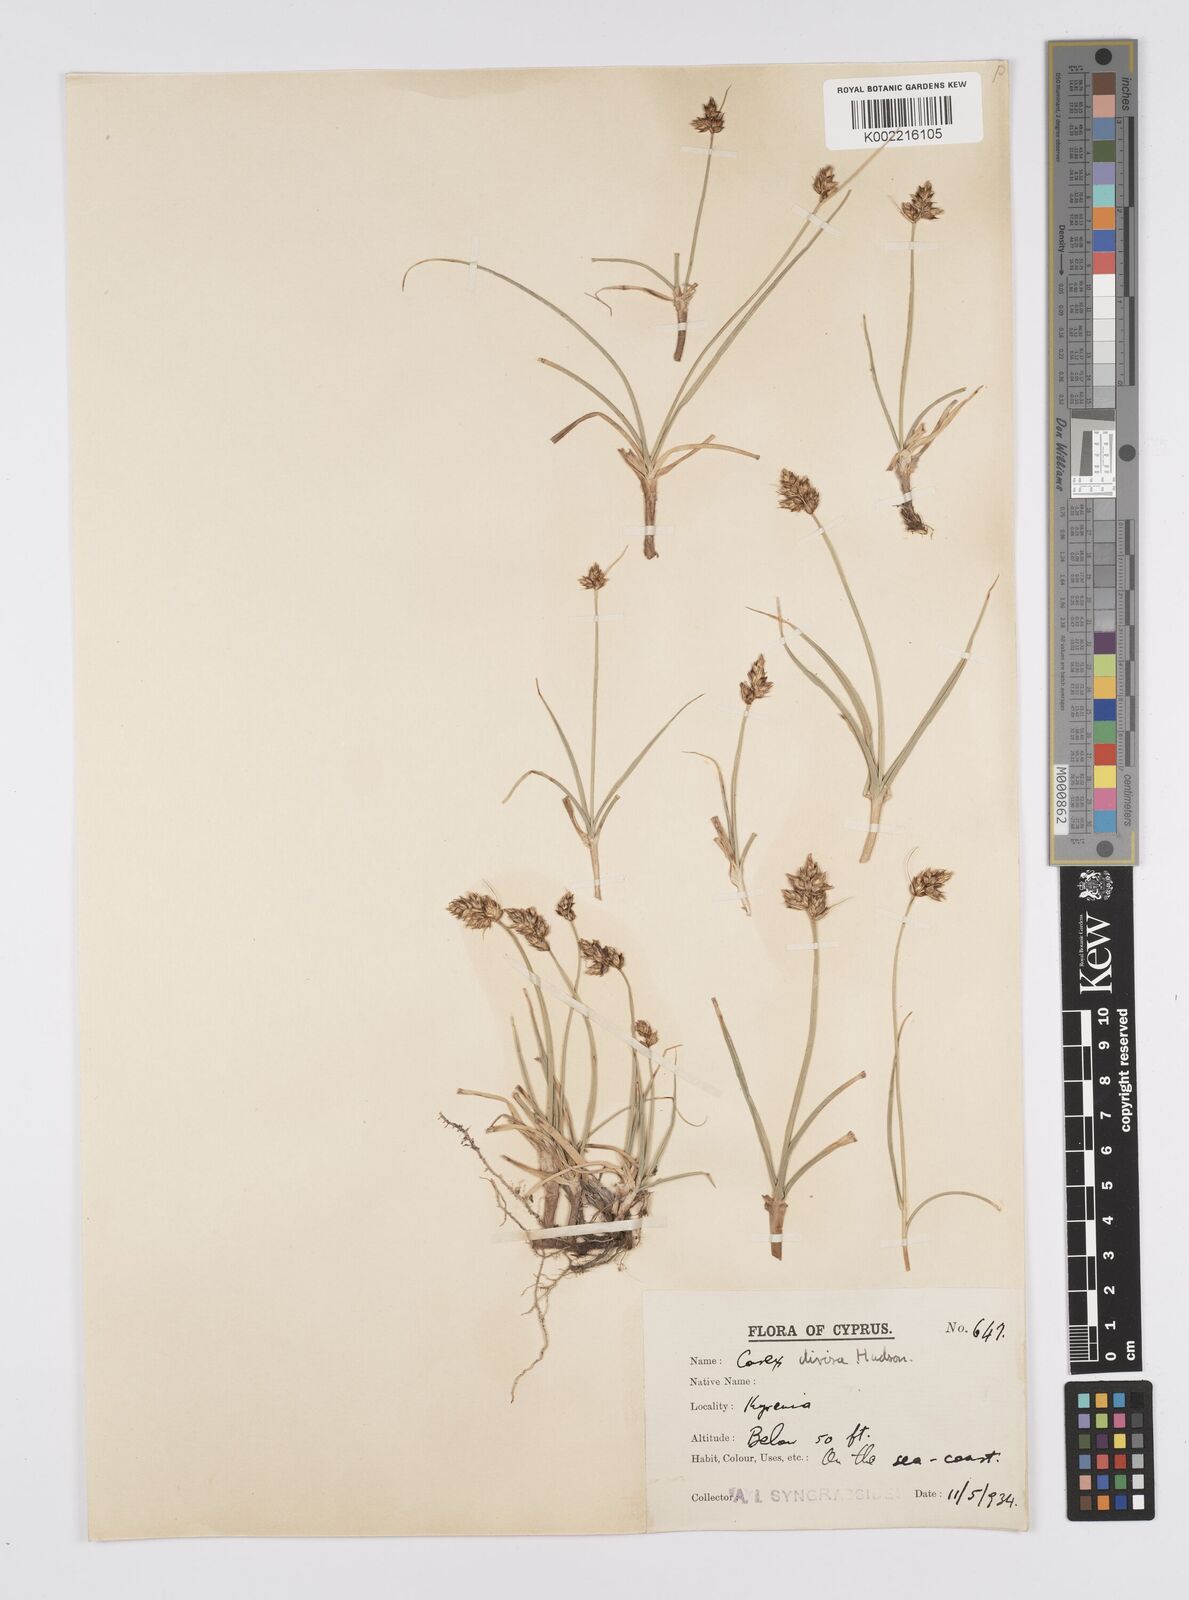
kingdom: Plantae
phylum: Tracheophyta
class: Liliopsida
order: Poales
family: Cyperaceae
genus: Carex
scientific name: Carex divisa
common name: Divided sedge
